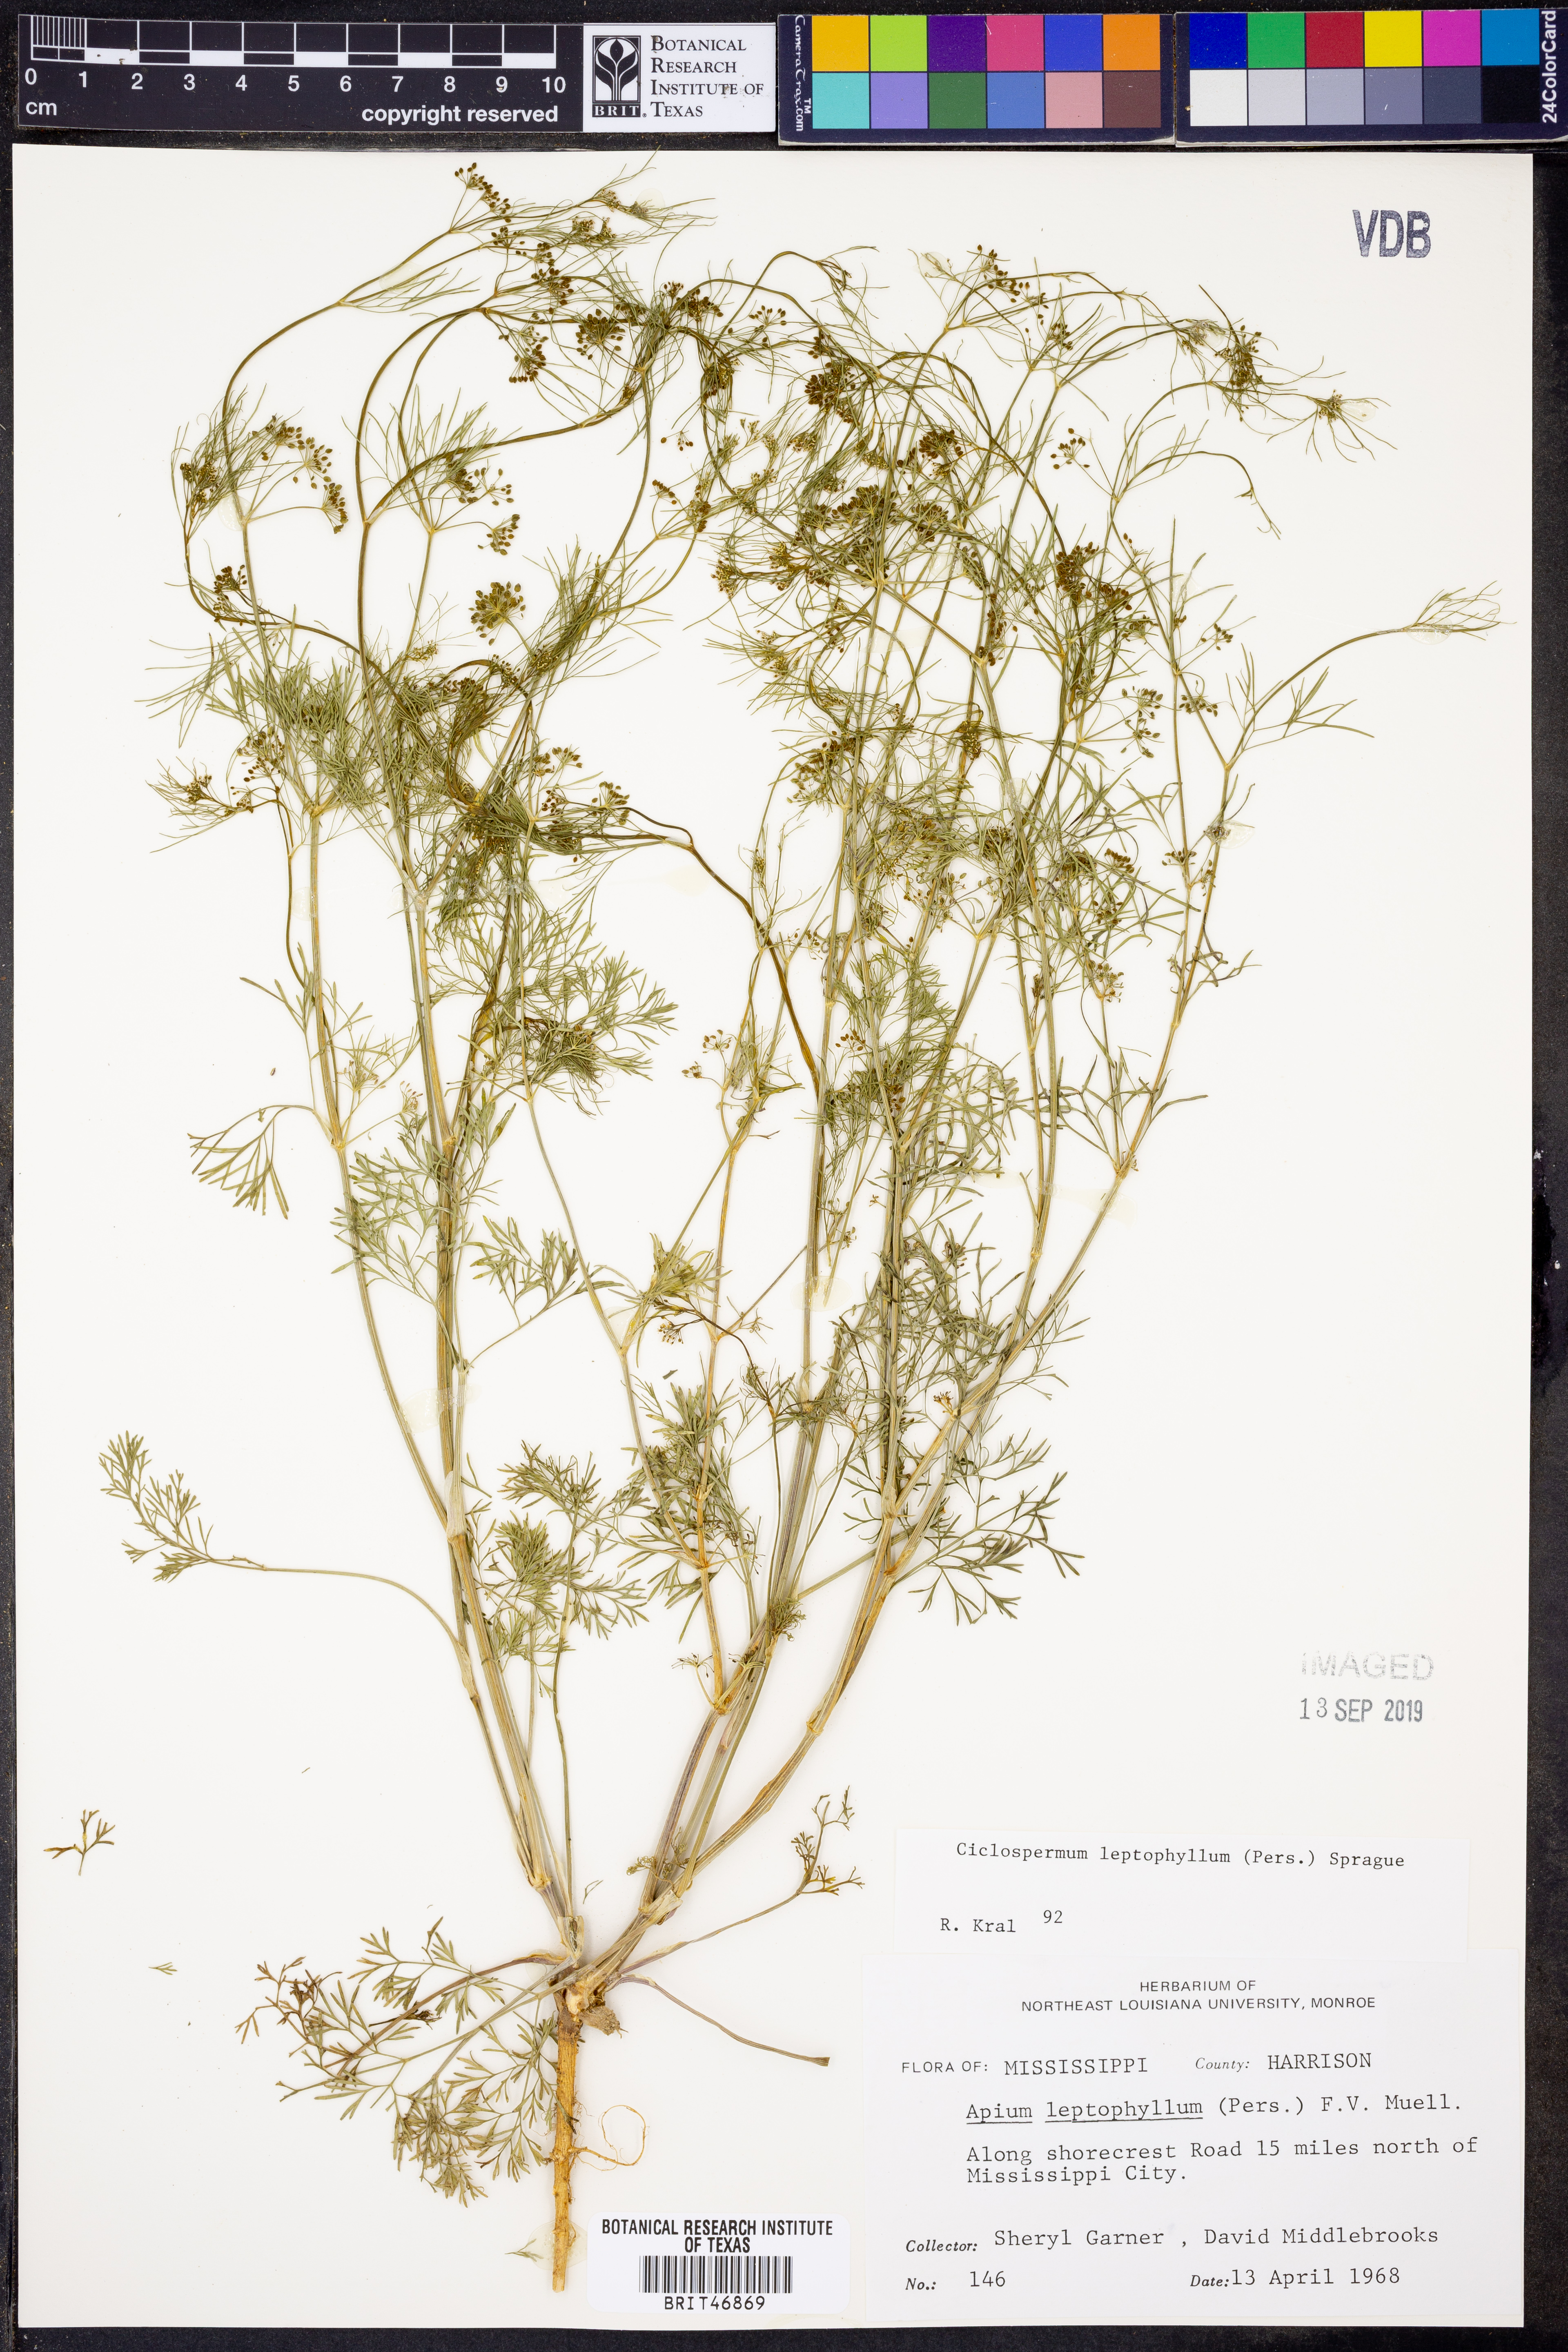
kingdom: Plantae
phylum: Tracheophyta
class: Magnoliopsida
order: Apiales
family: Apiaceae
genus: Cyclospermum
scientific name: Cyclospermum leptophyllum
